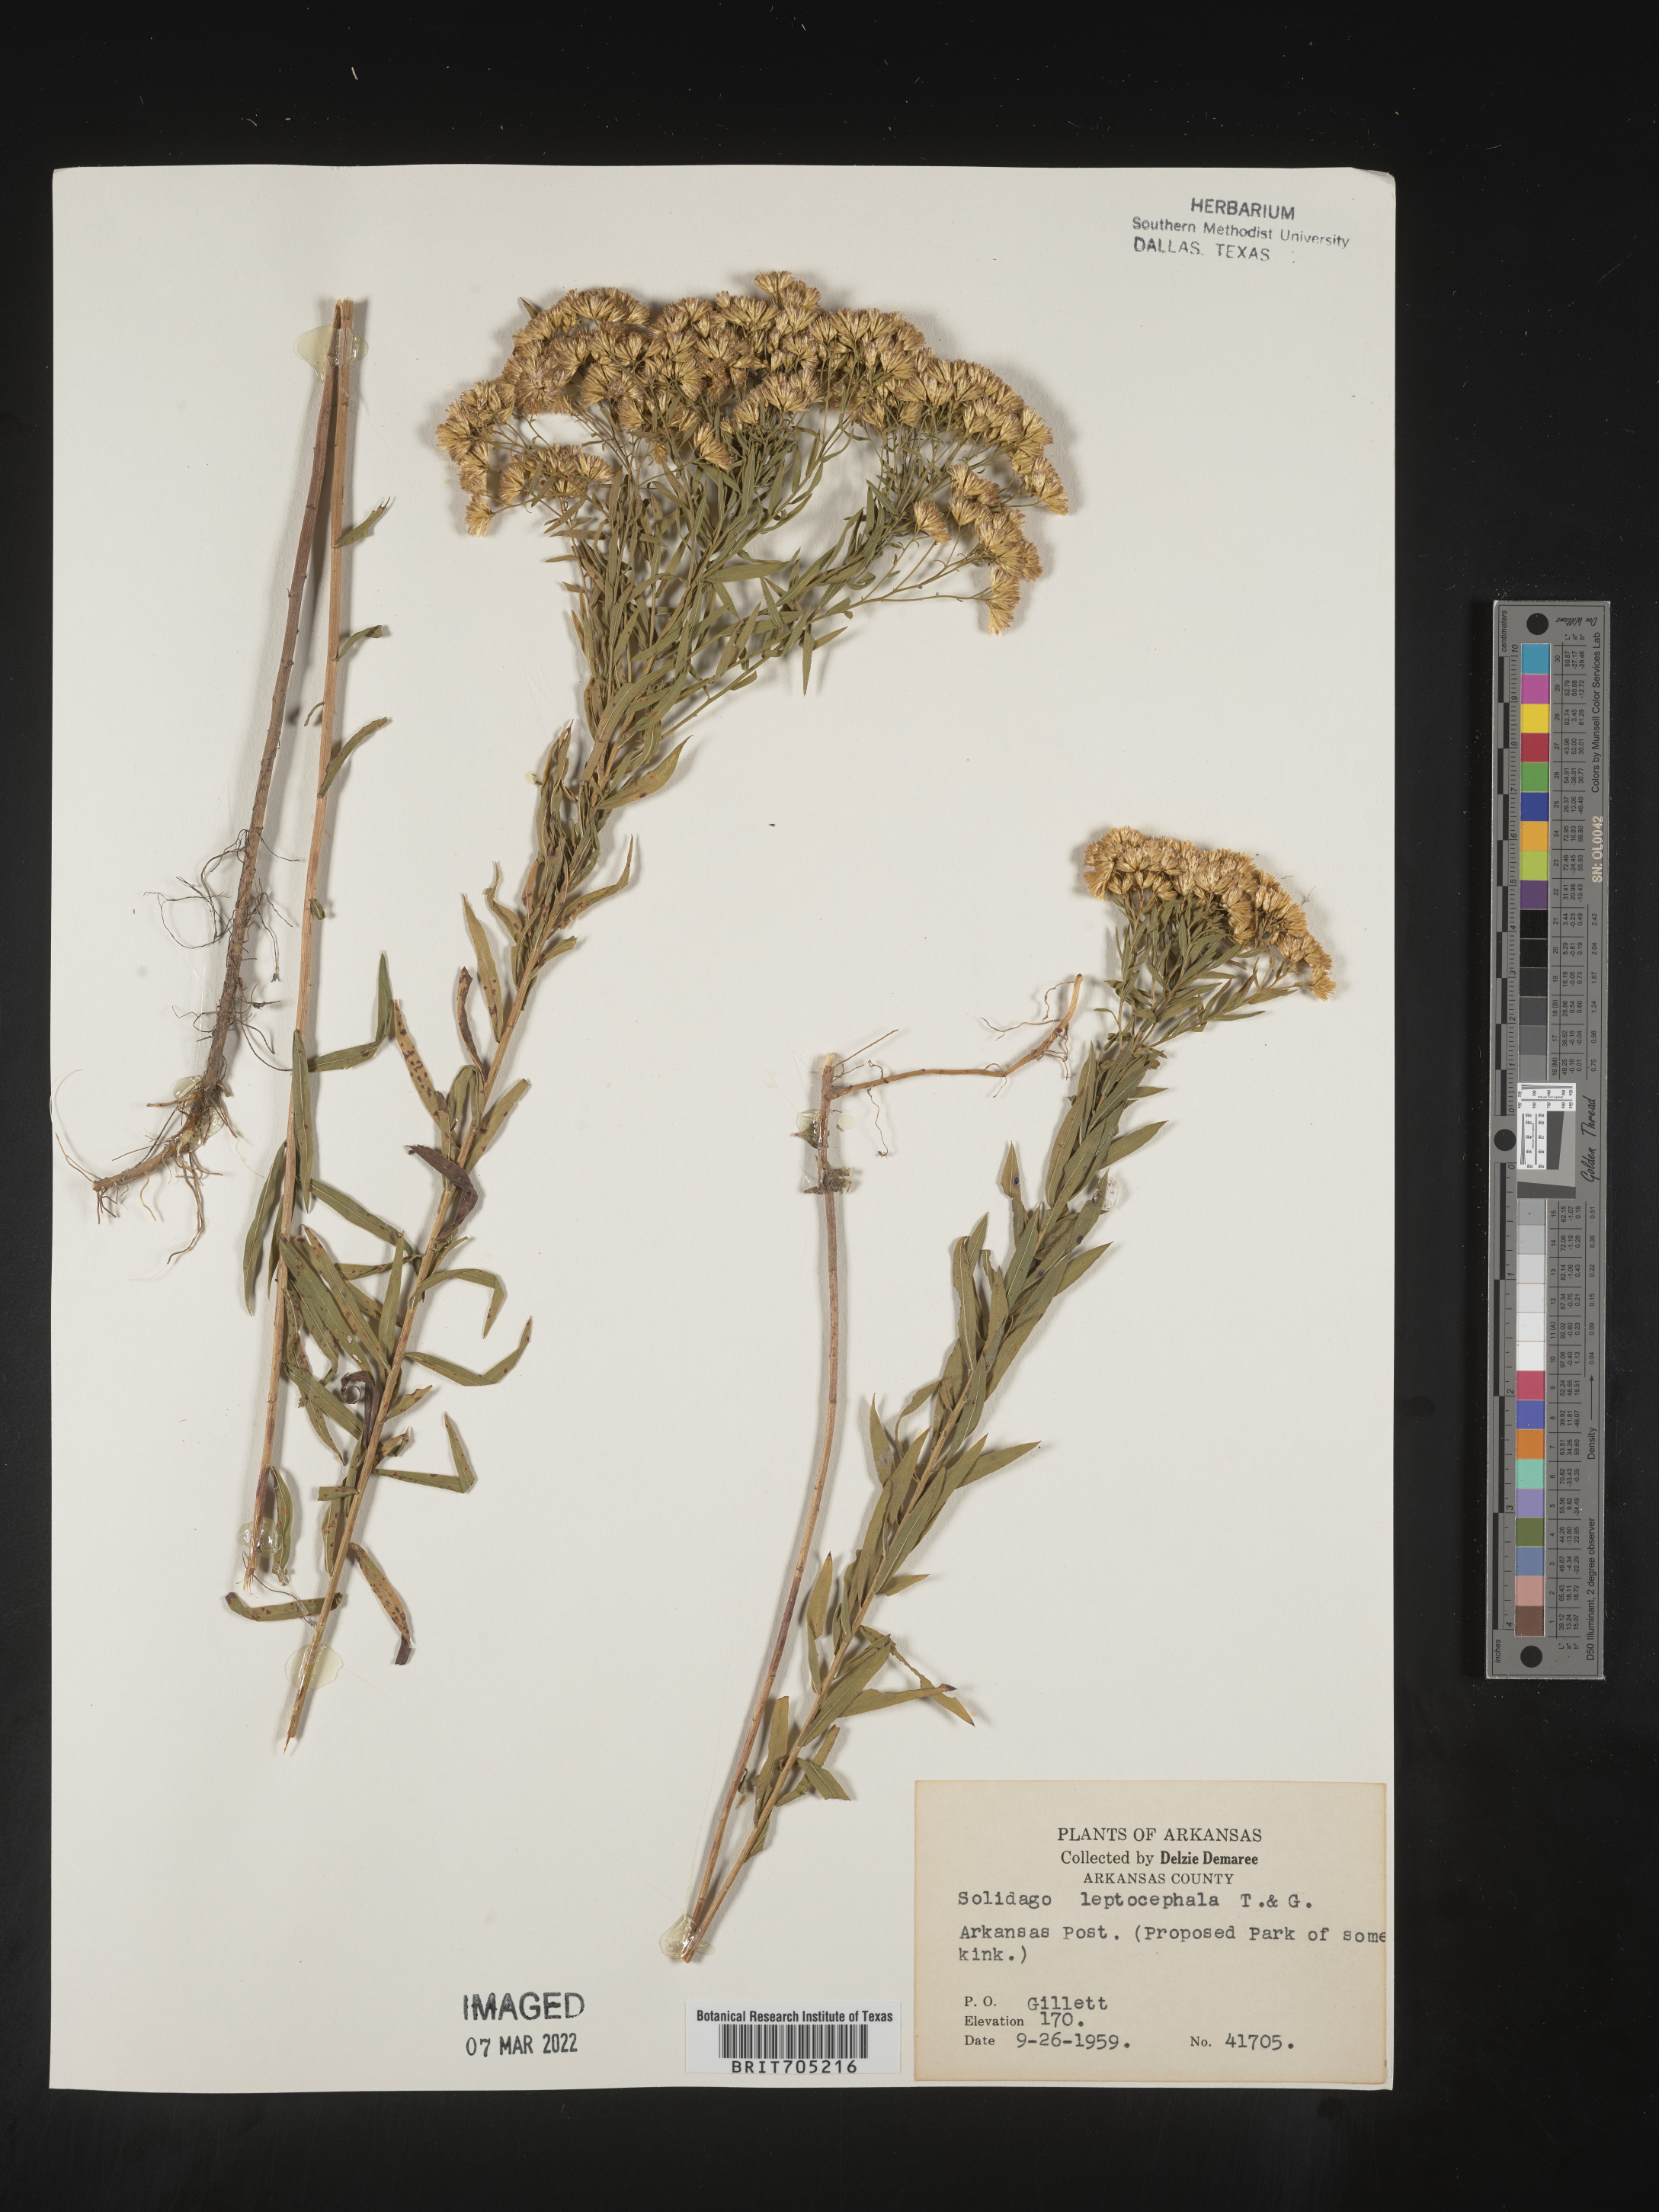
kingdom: Plantae
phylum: Tracheophyta
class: Magnoliopsida
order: Asterales
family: Asteraceae
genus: Euthamia
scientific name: Euthamia leptocephala
